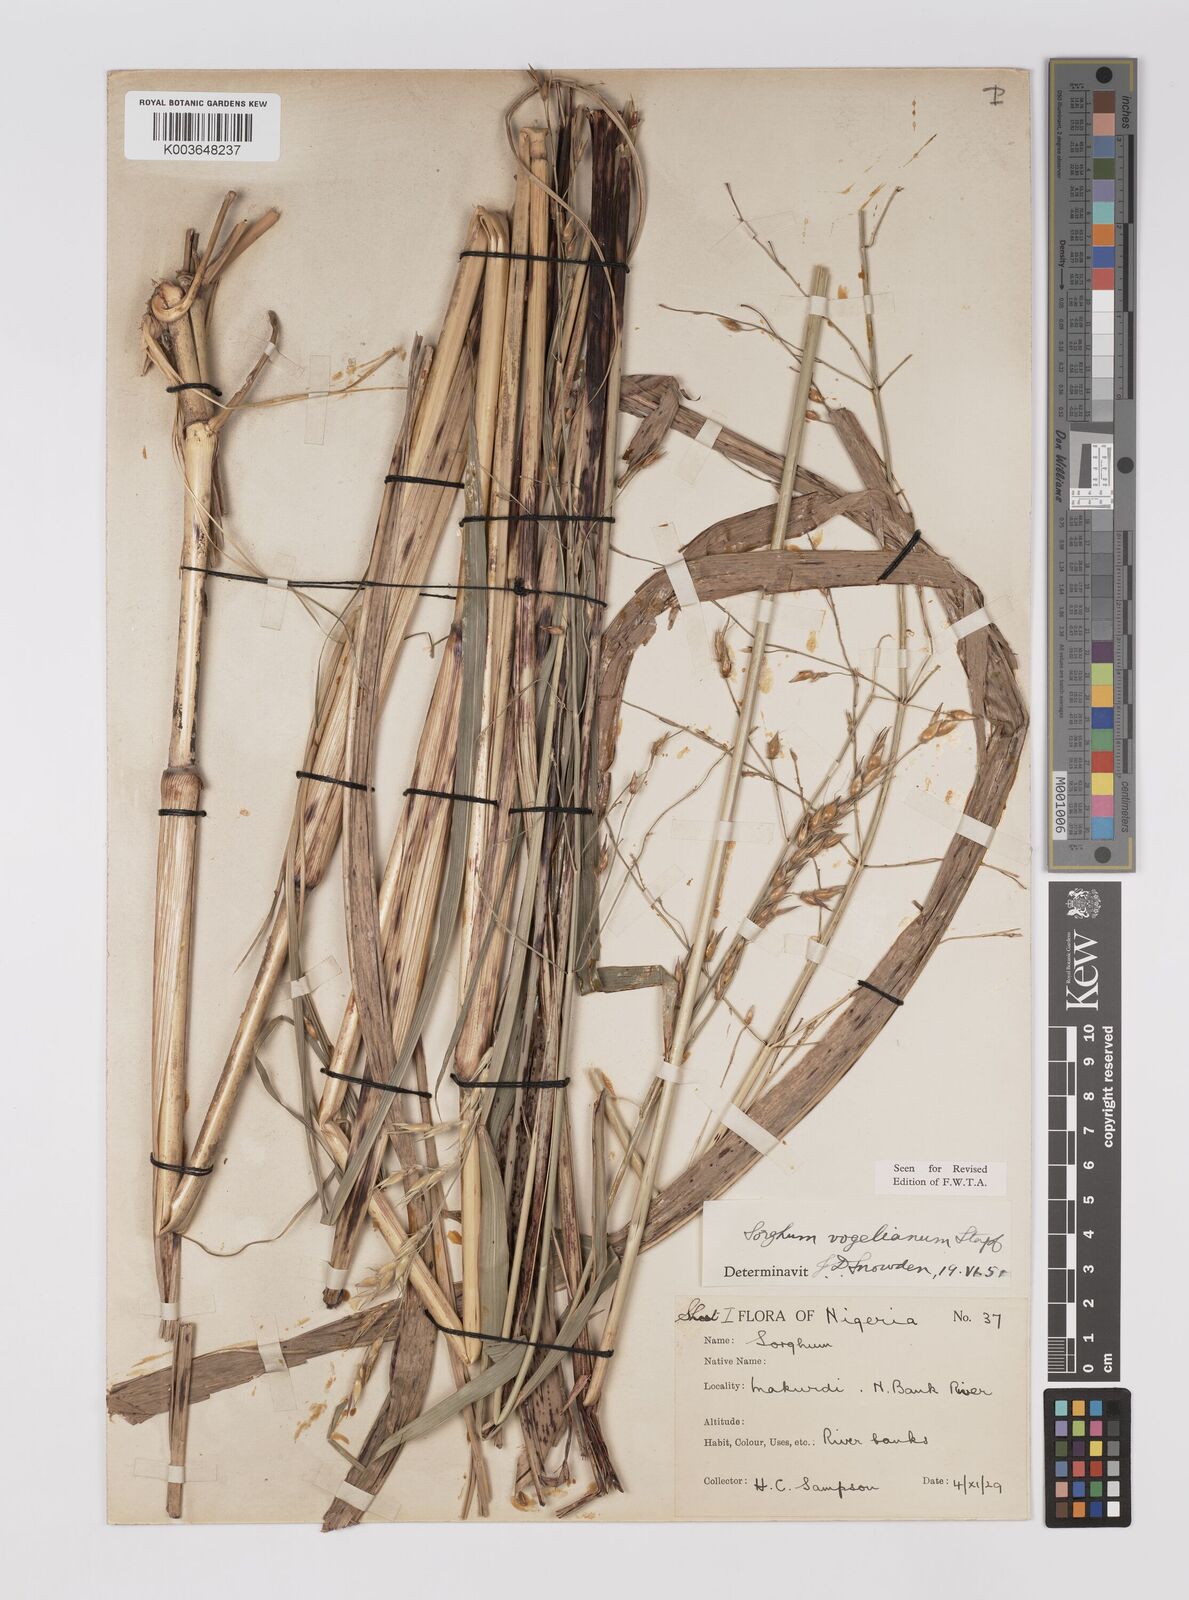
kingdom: Plantae
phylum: Tracheophyta
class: Liliopsida
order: Poales
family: Poaceae
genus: Sorghum
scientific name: Sorghum arundinaceum
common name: Sorghum
